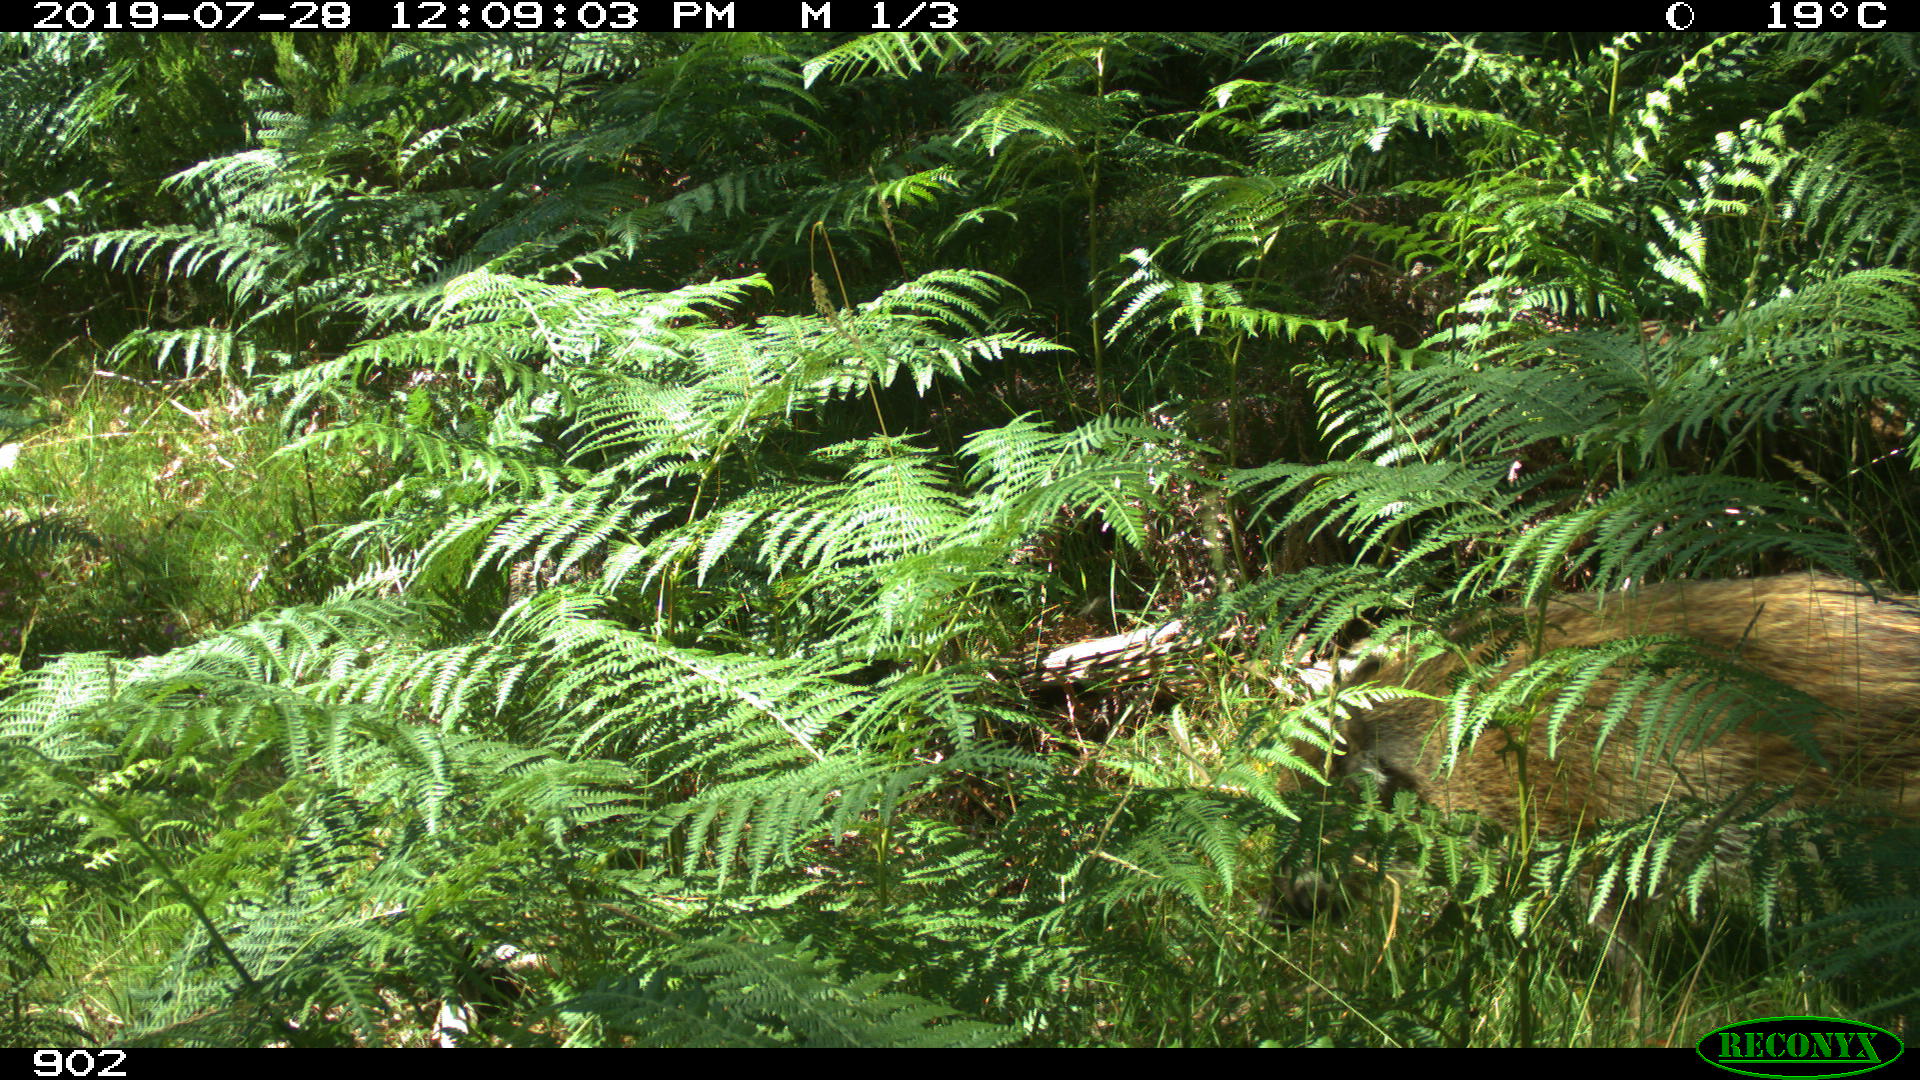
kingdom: Animalia
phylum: Chordata
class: Mammalia
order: Artiodactyla
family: Suidae
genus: Sus
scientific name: Sus scrofa
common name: Wild boar
